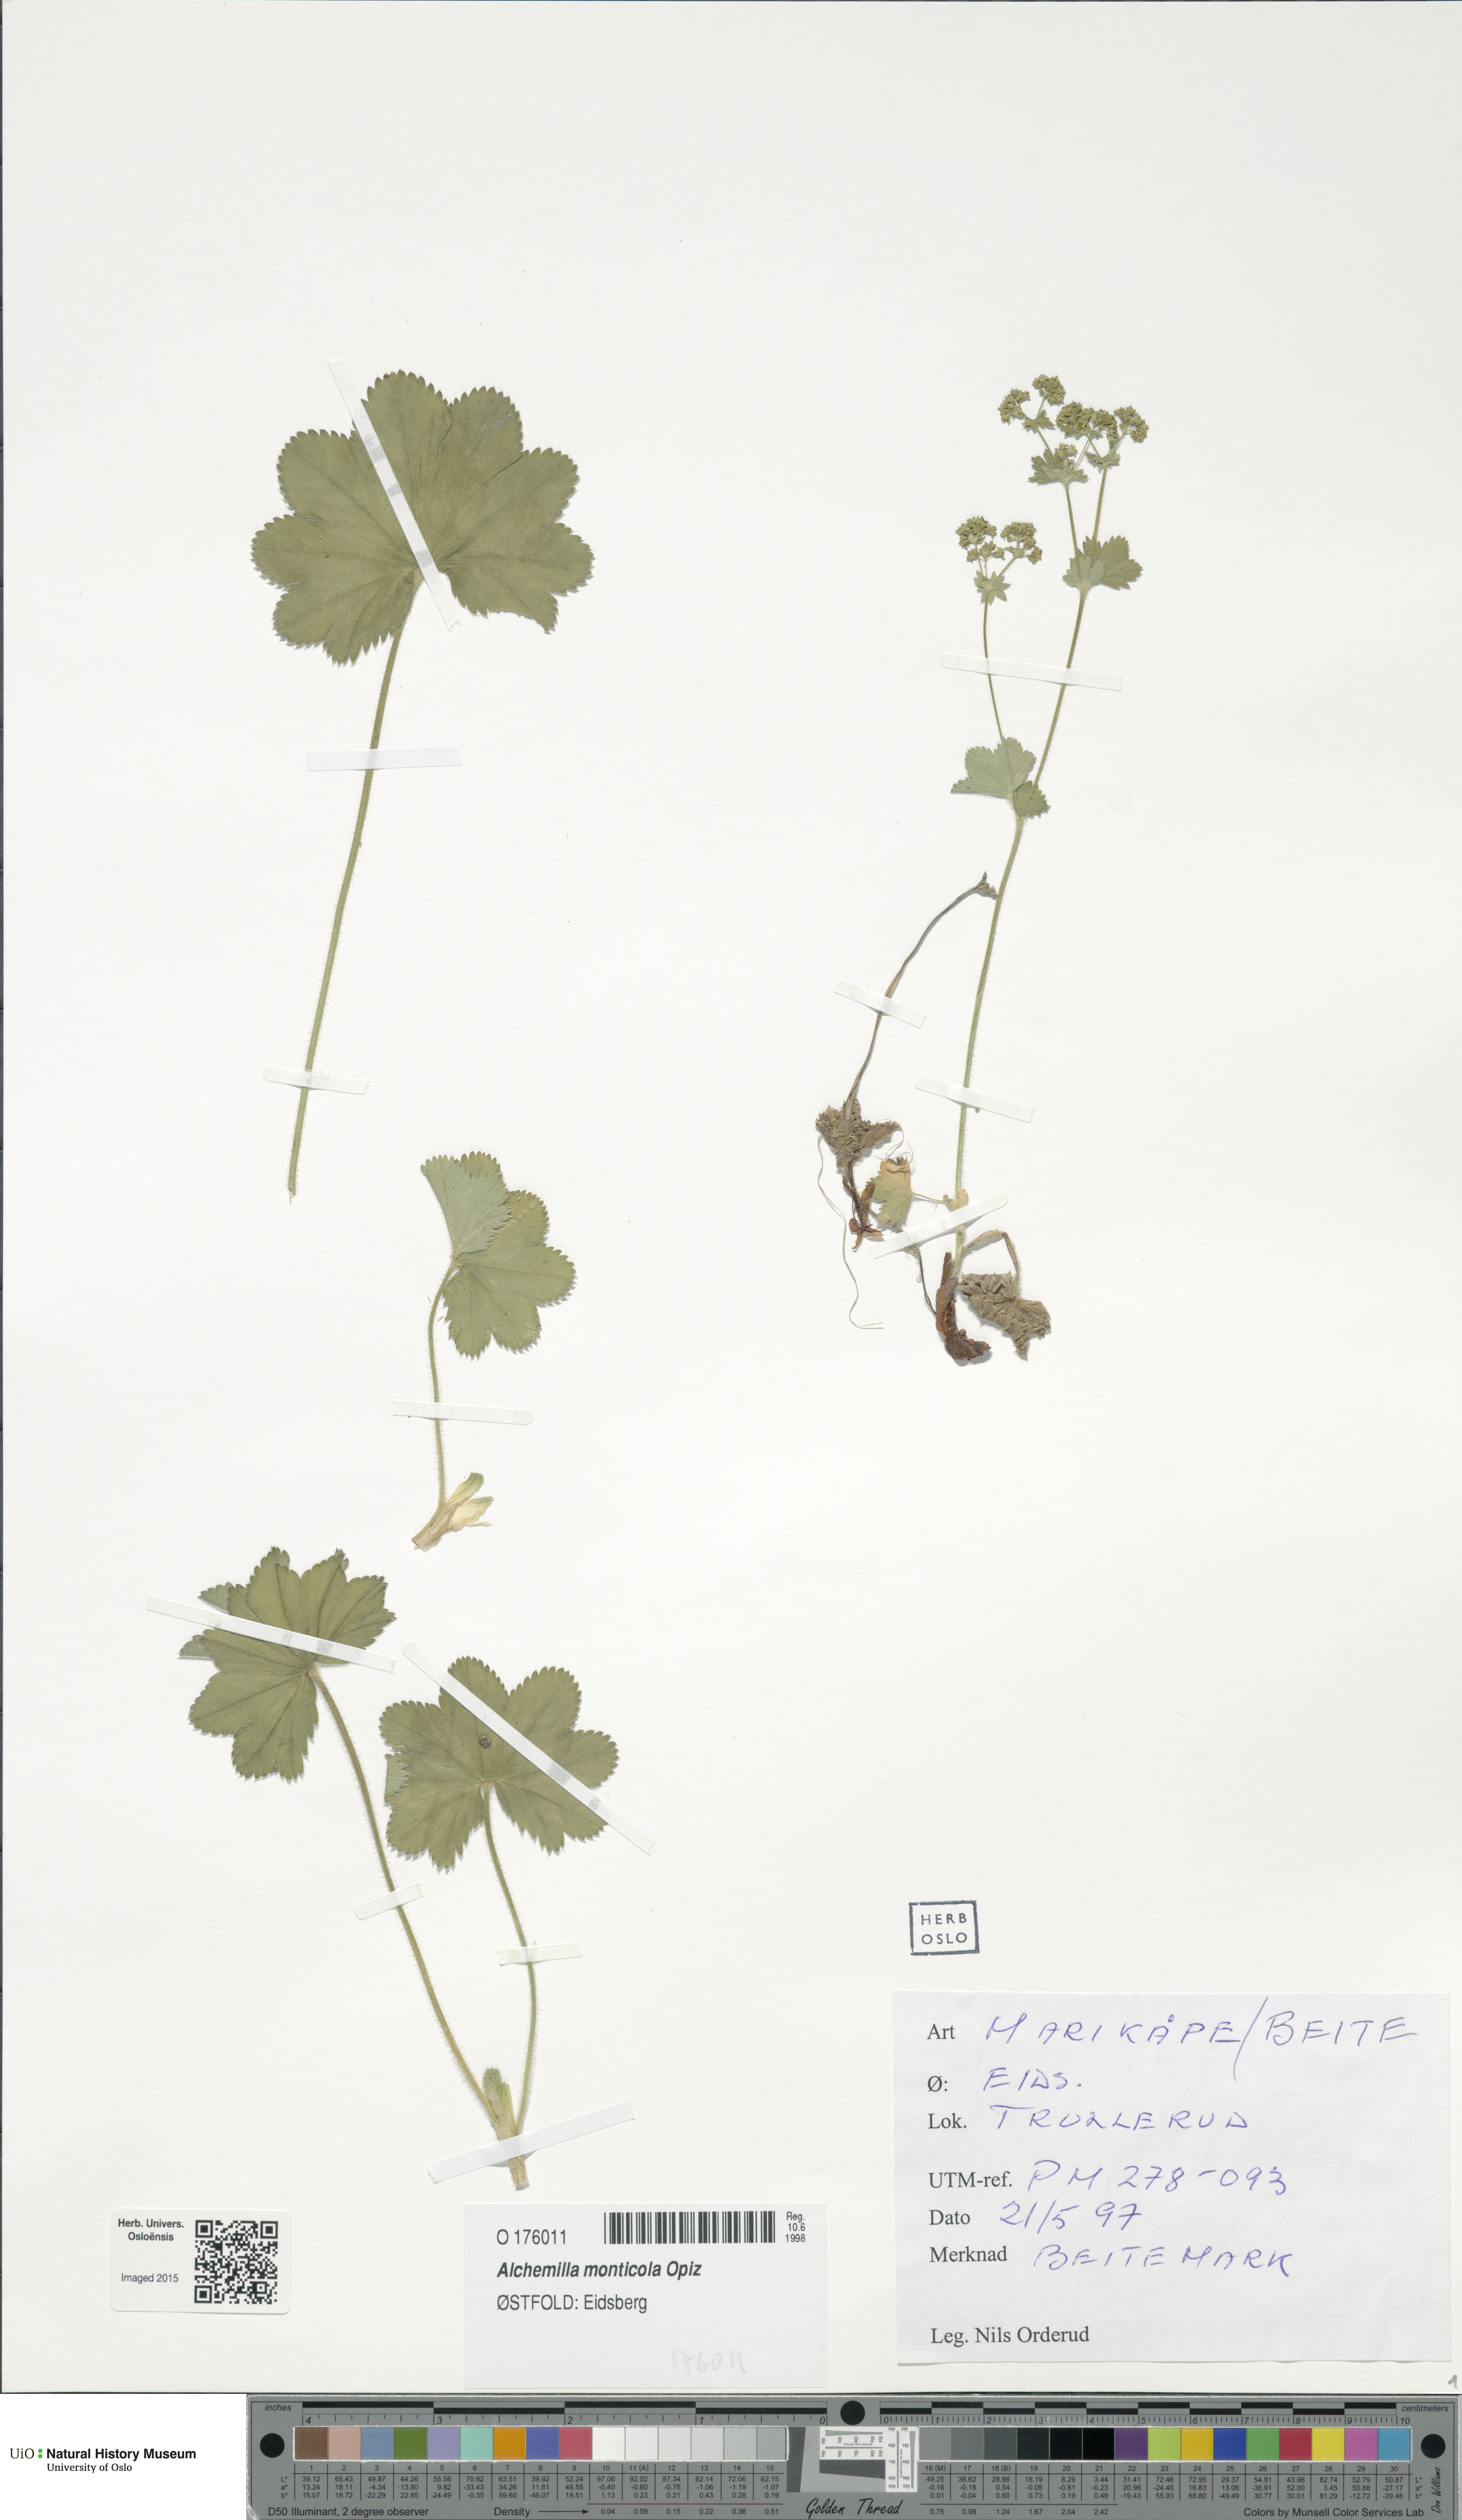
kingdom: Plantae
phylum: Tracheophyta
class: Magnoliopsida
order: Rosales
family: Rosaceae
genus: Alchemilla
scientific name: Alchemilla monticola
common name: Hairy lady's mantle
